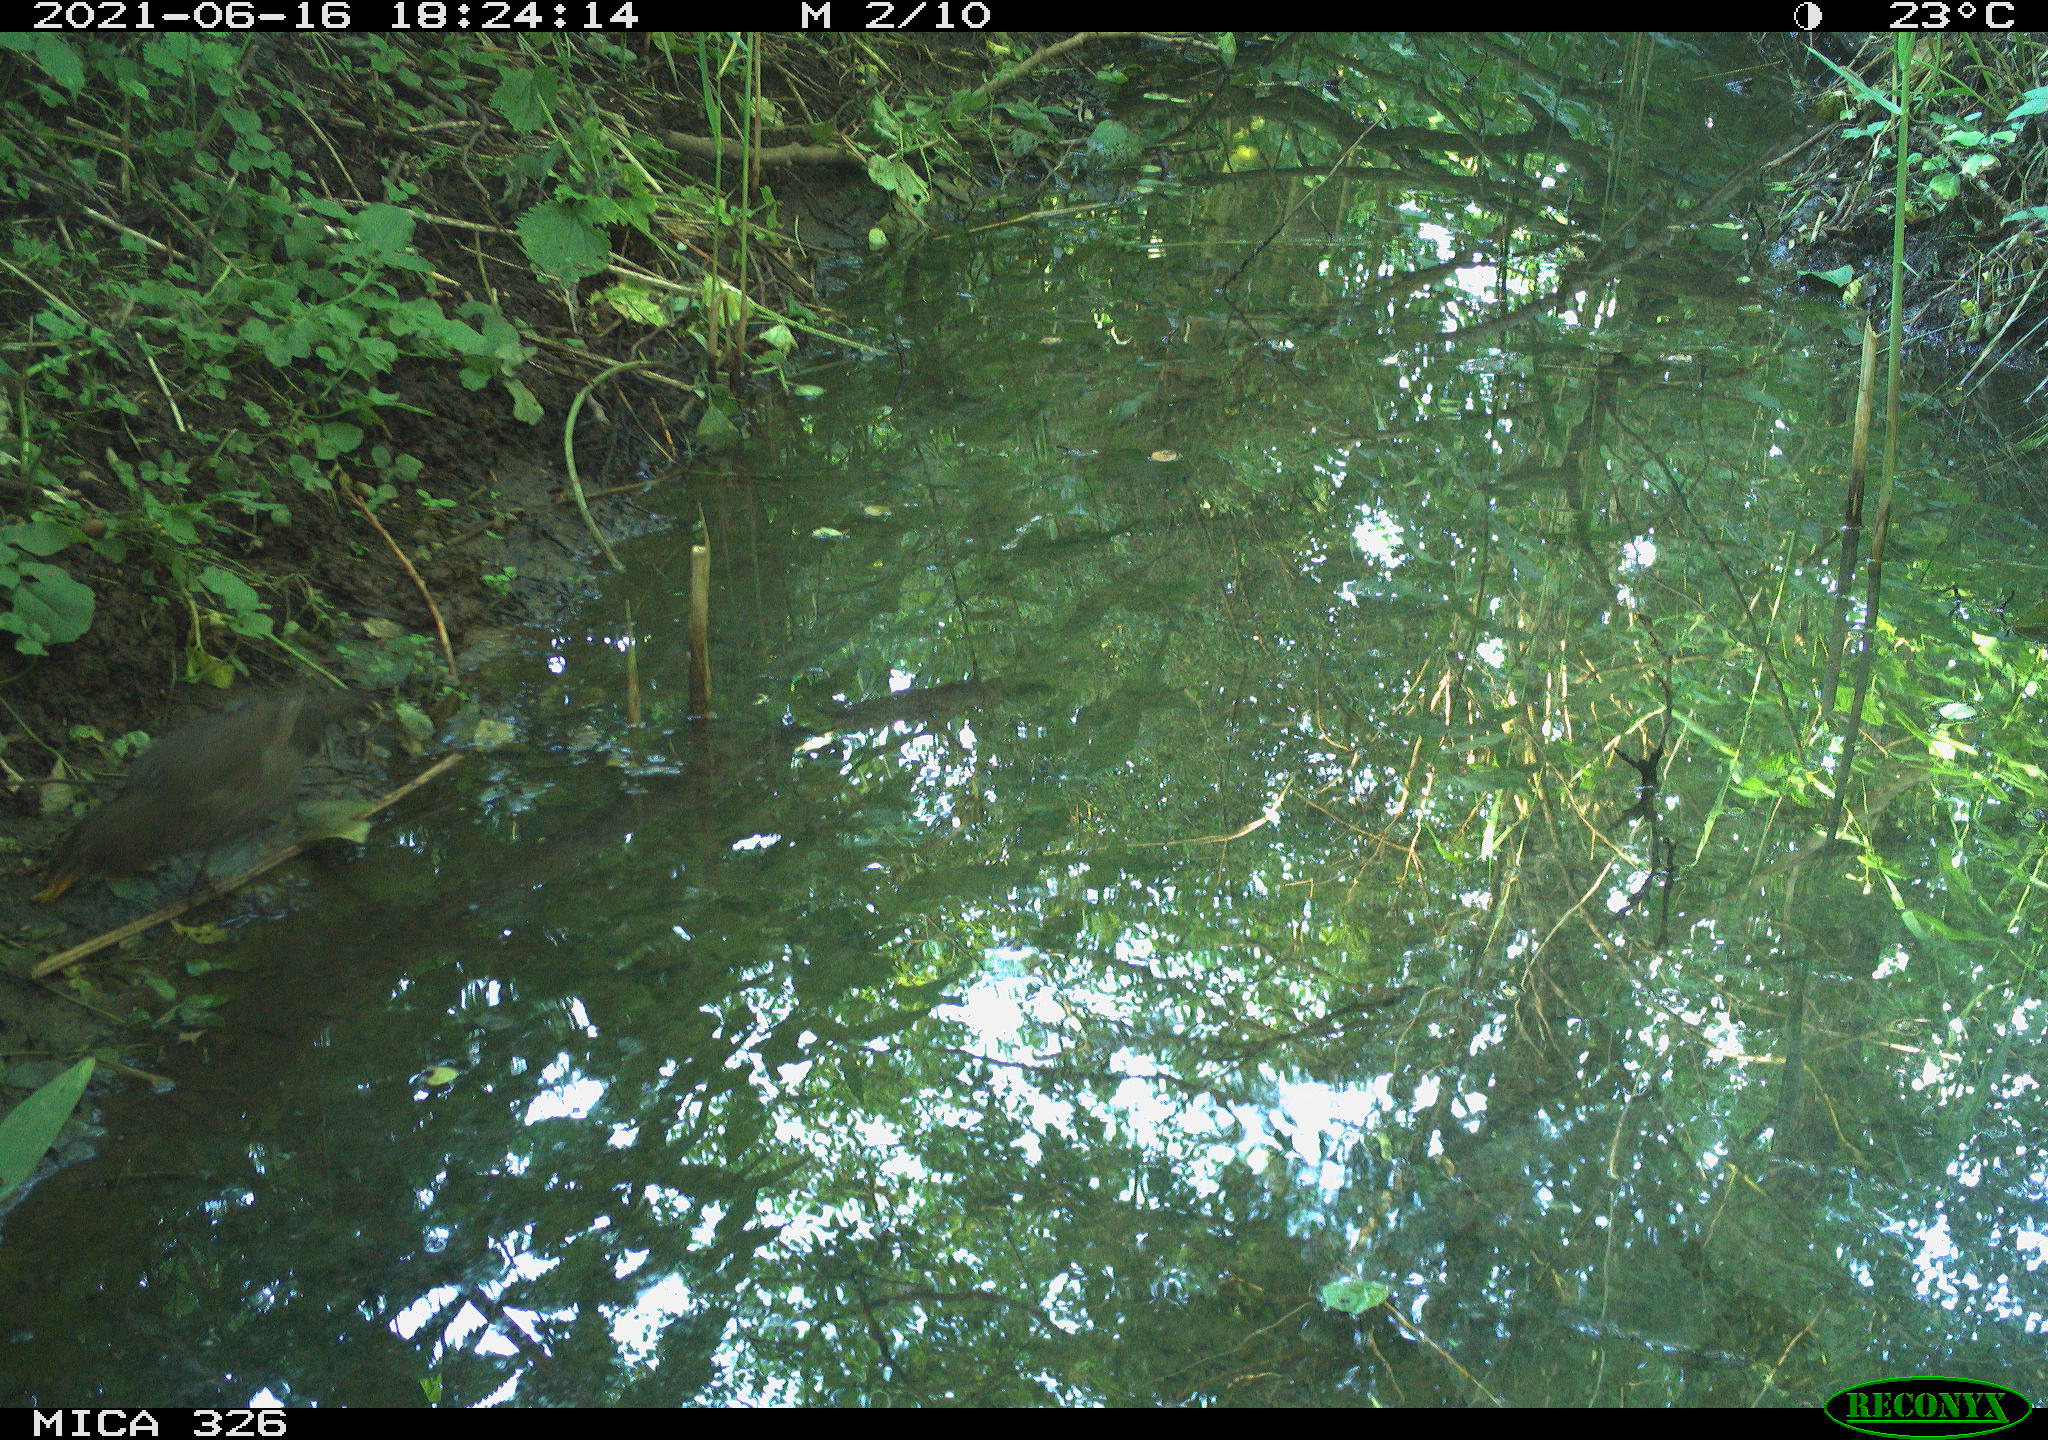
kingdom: Animalia
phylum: Chordata
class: Aves
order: Passeriformes
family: Turdidae
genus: Turdus
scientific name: Turdus merula
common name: Common blackbird
